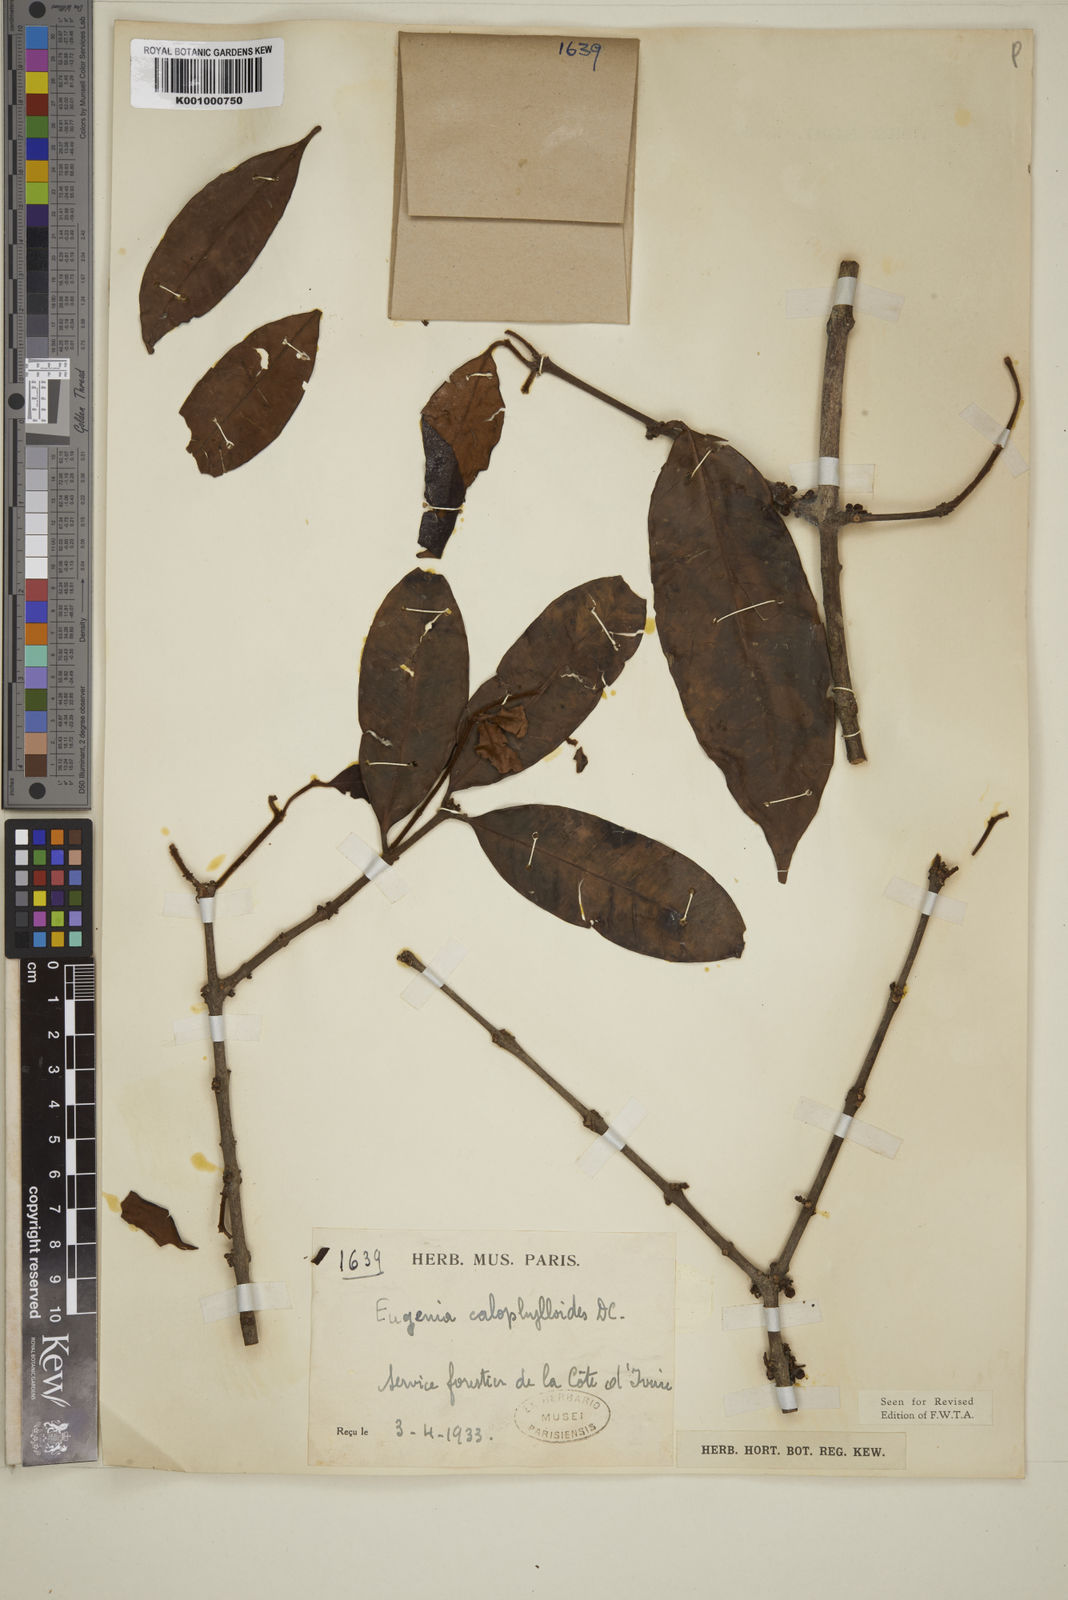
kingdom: Plantae
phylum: Tracheophyta
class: Magnoliopsida
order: Myrtales
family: Myrtaceae
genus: Eugenia
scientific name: Eugenia calophylloides
